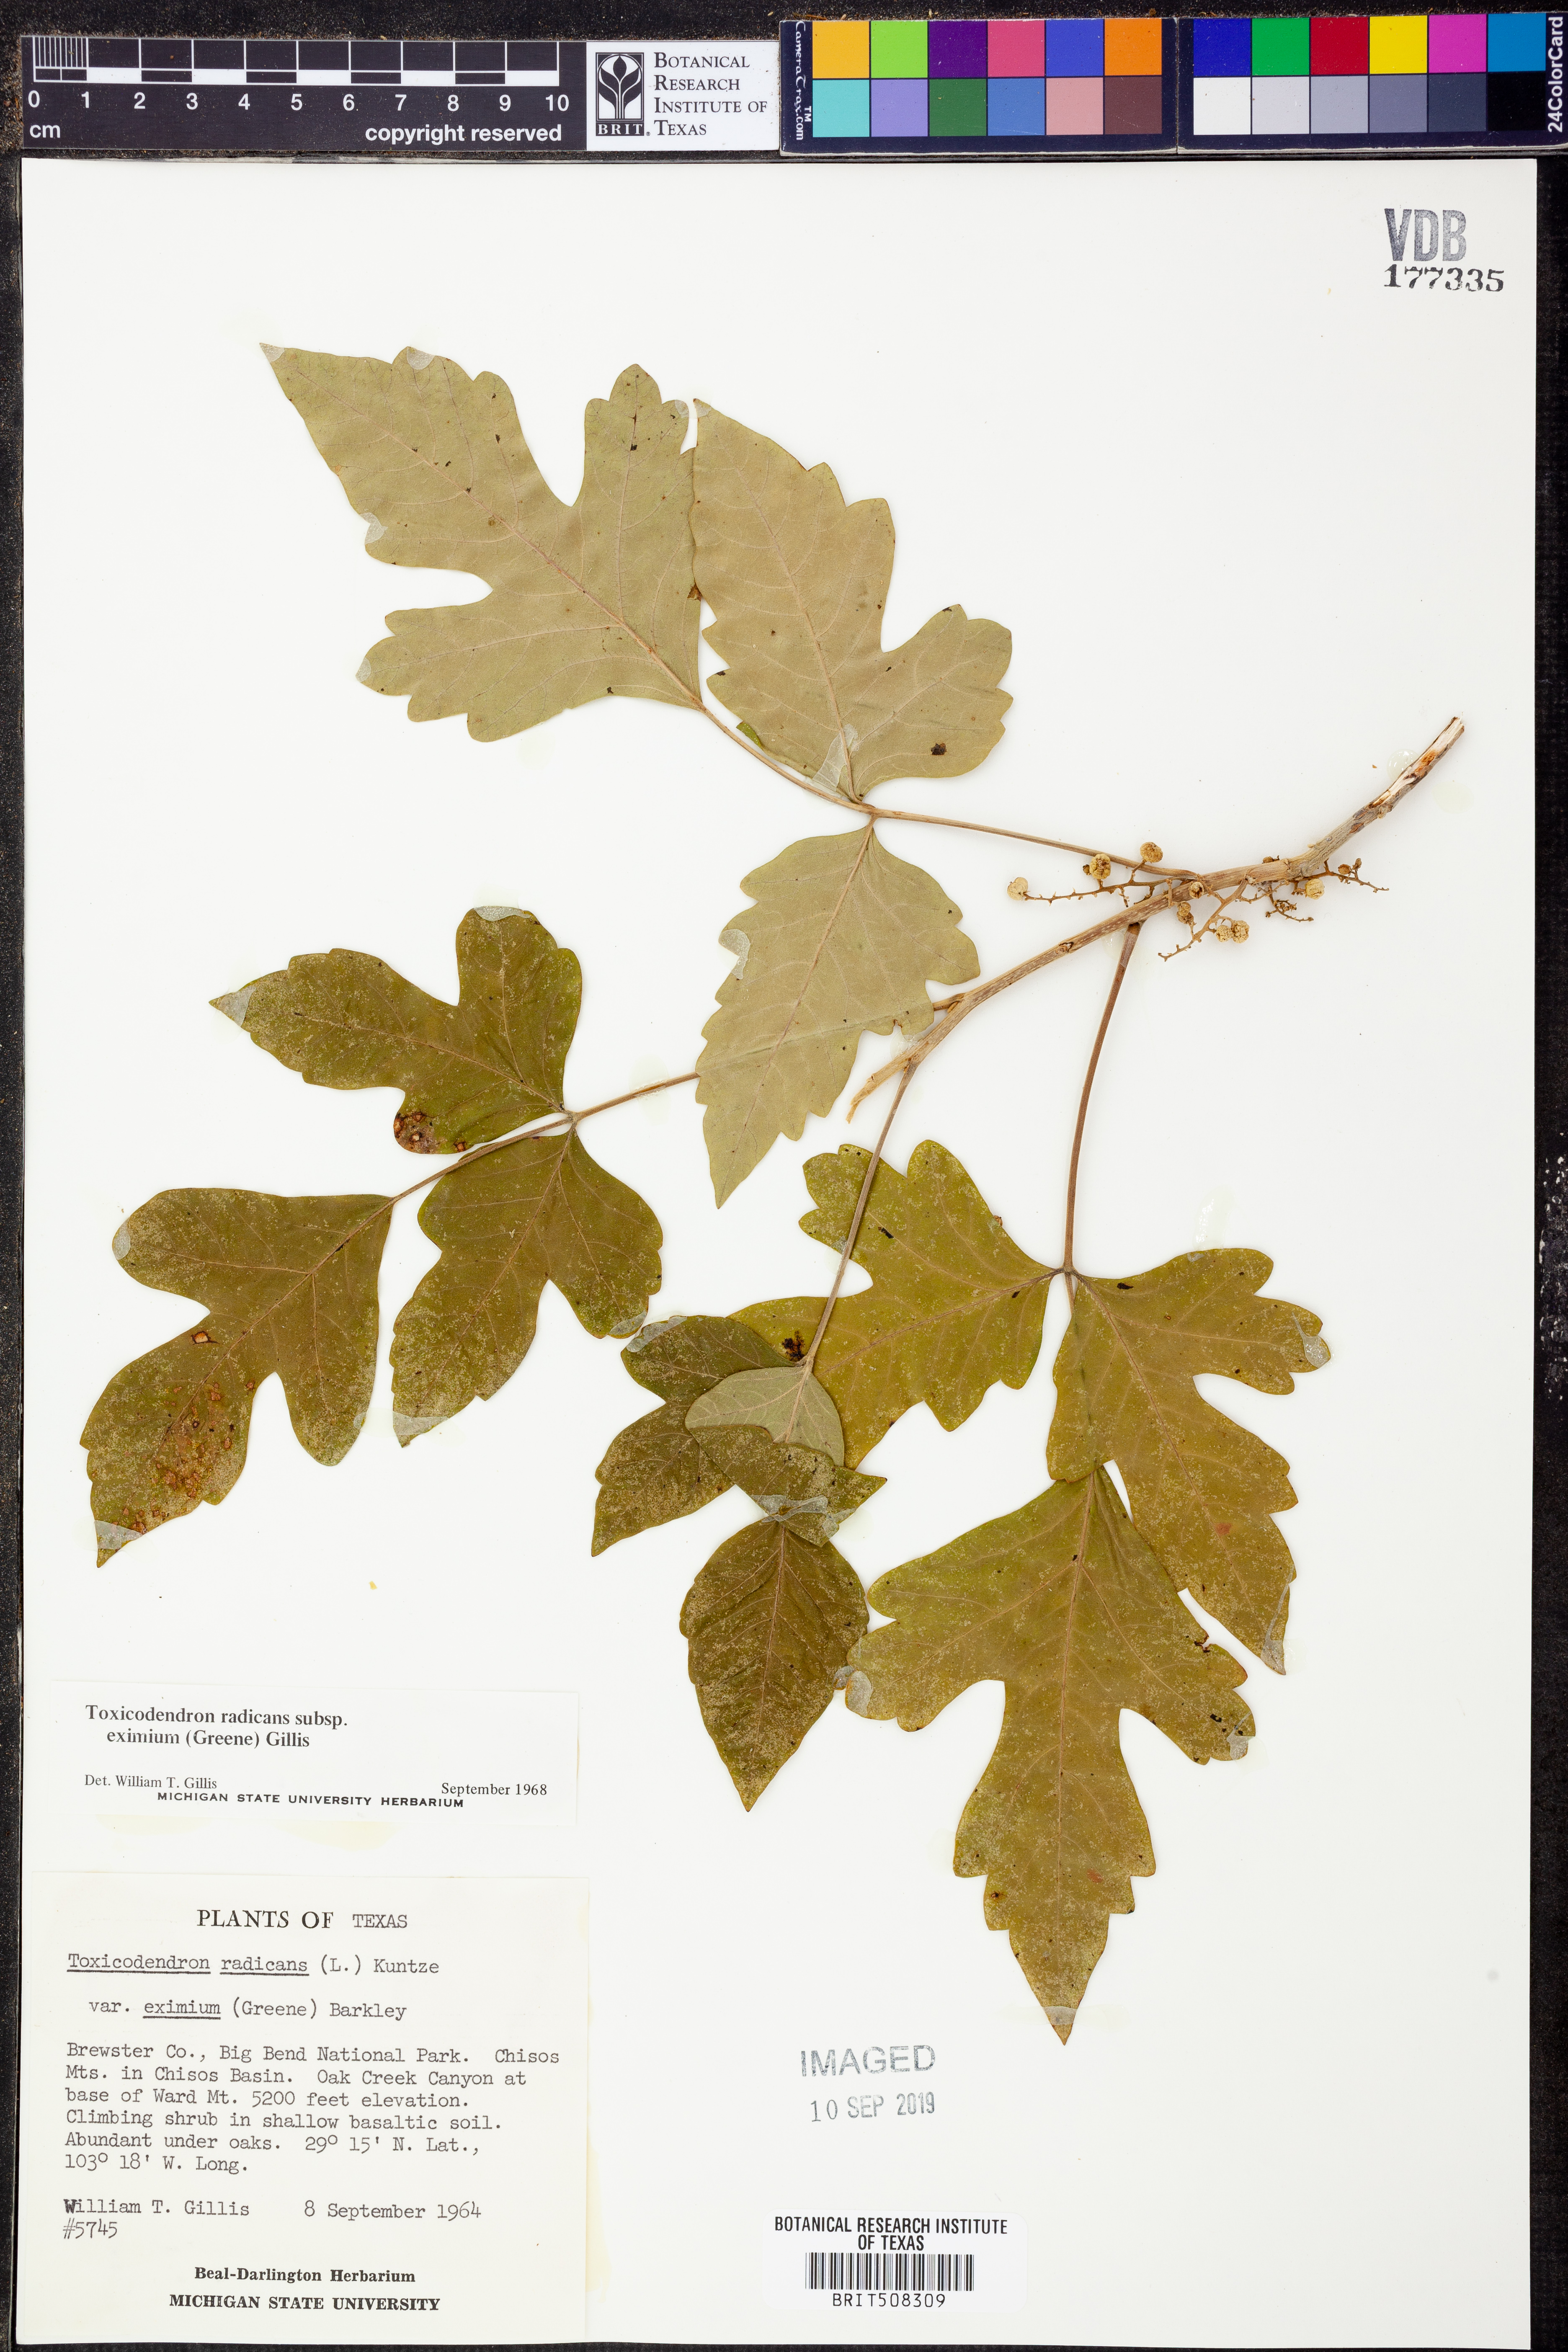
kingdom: Plantae
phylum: Tracheophyta
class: Magnoliopsida
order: Sapindales
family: Anacardiaceae
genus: Toxicodendron
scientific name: Toxicodendron radicans
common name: Poison ivy
